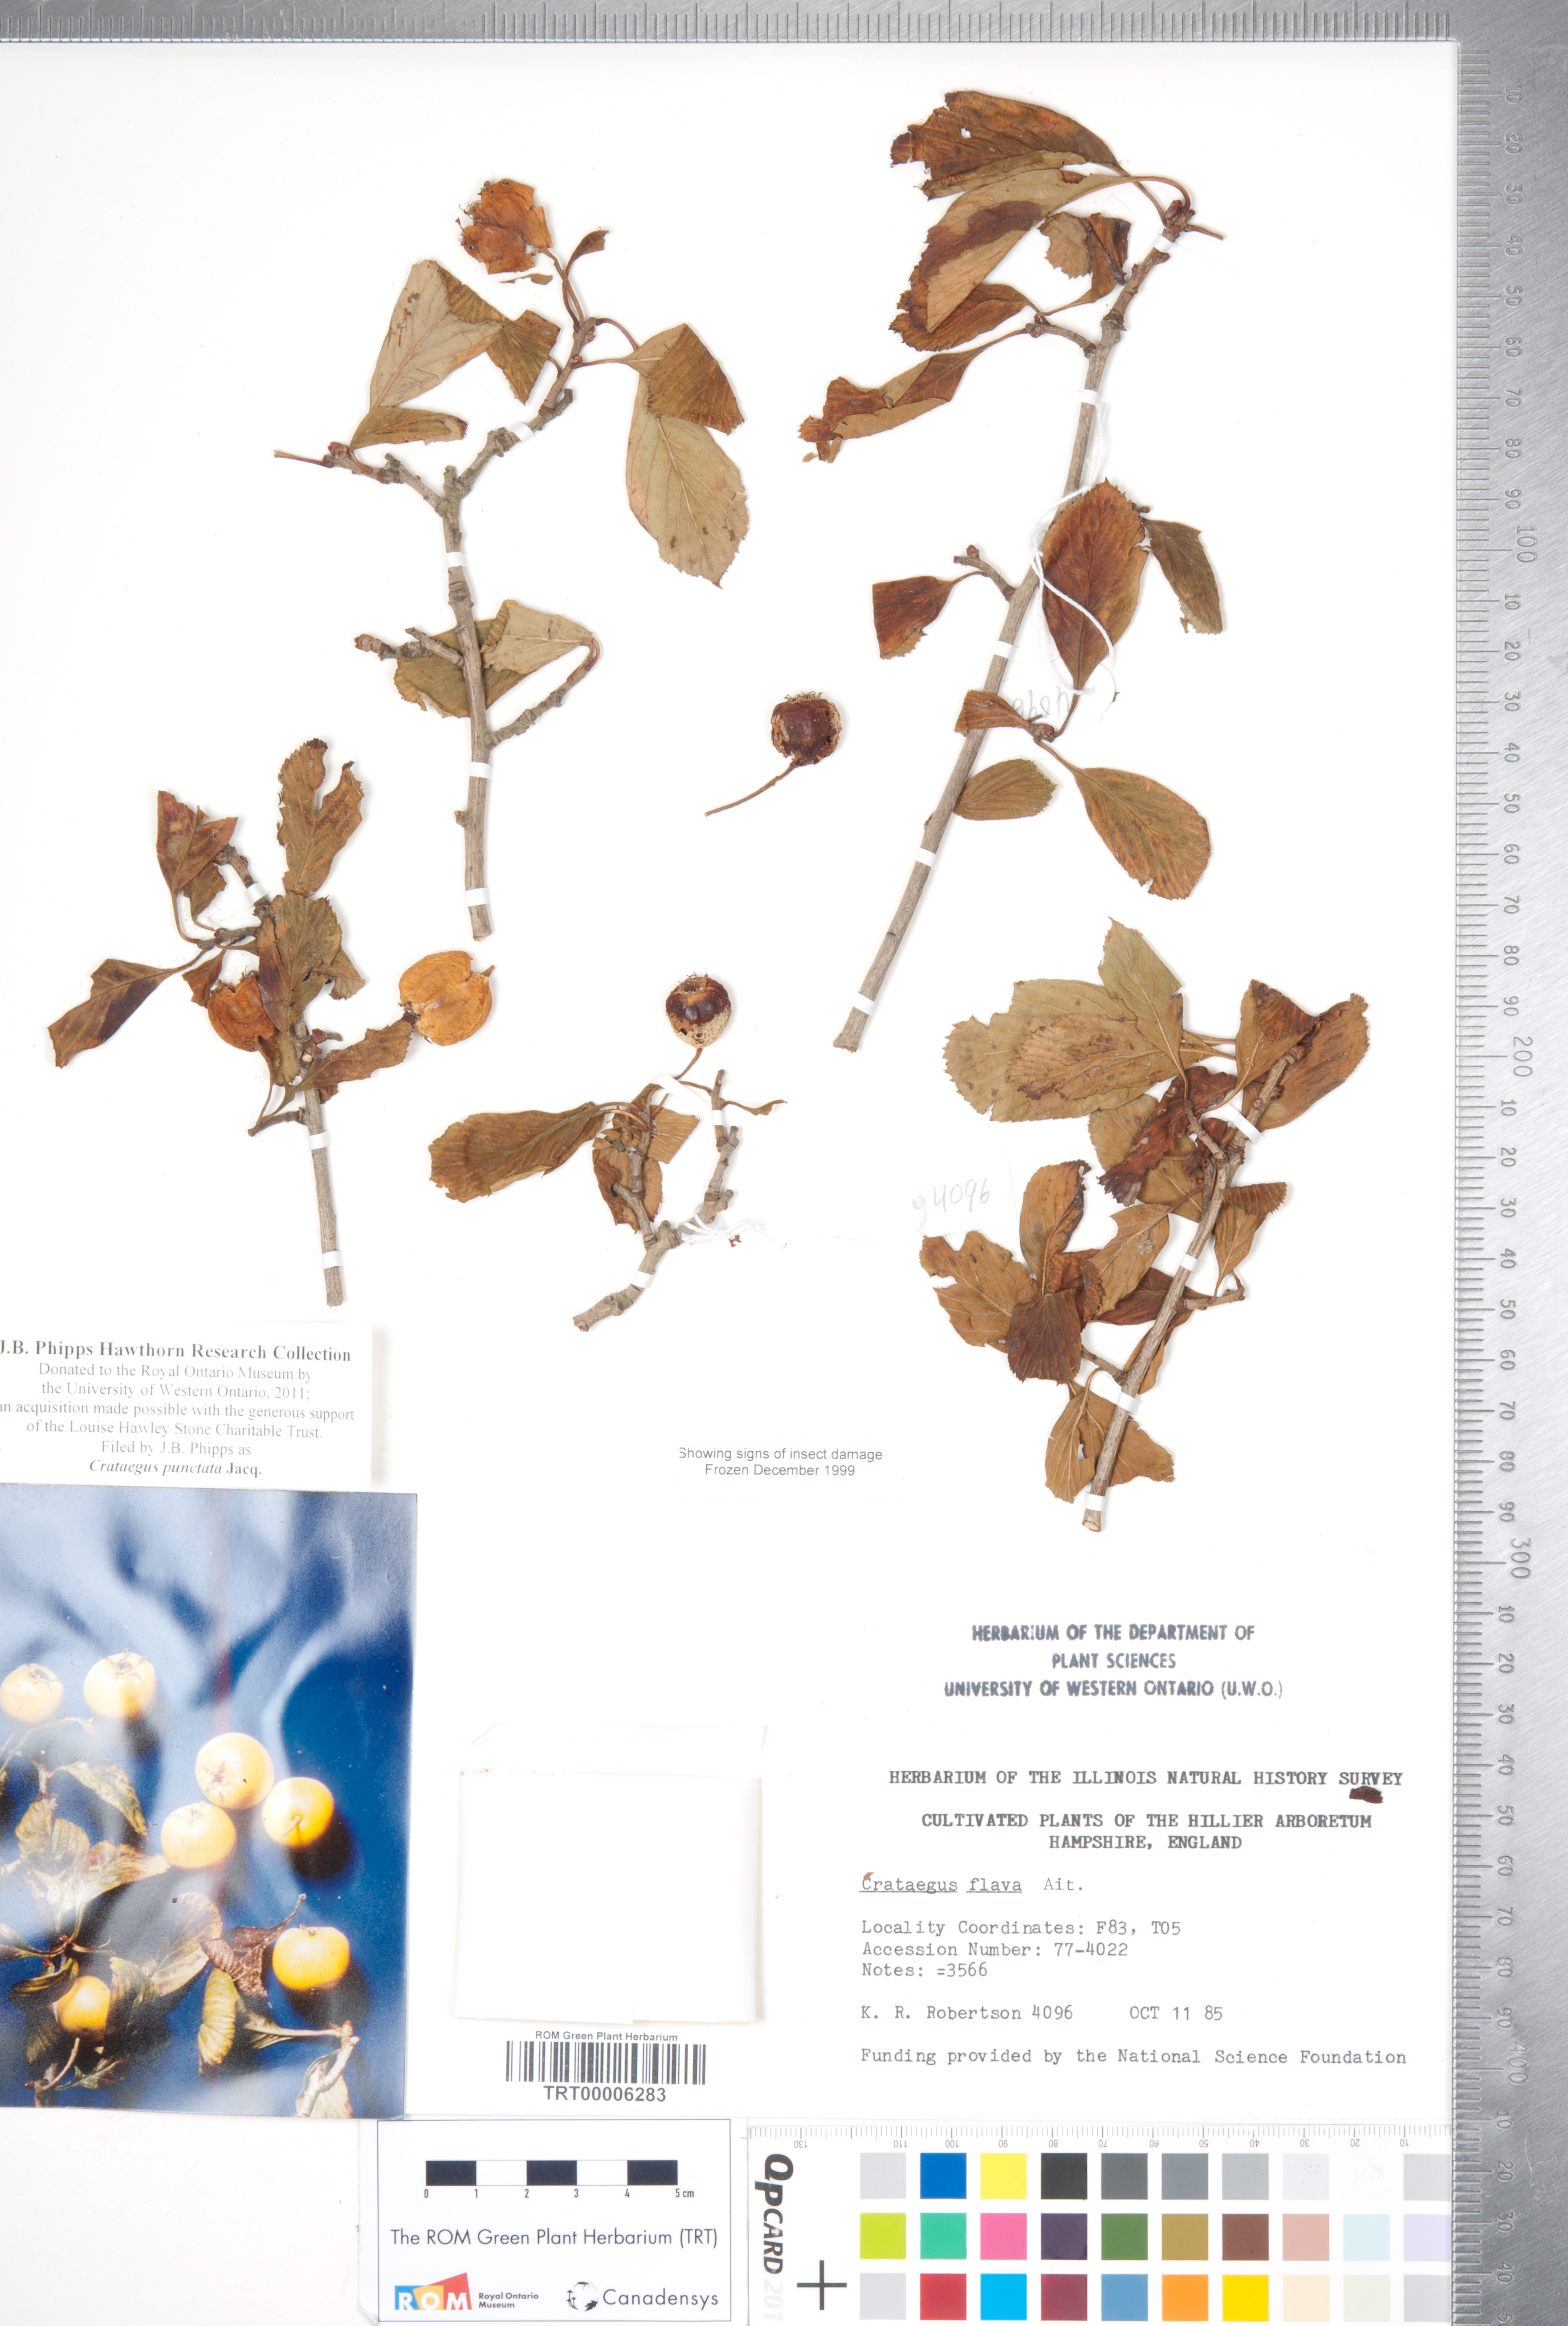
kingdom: Plantae
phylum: Tracheophyta
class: Magnoliopsida
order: Rosales
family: Rosaceae
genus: Crataegus
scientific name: Crataegus punctata
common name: Dotted hawthorn
